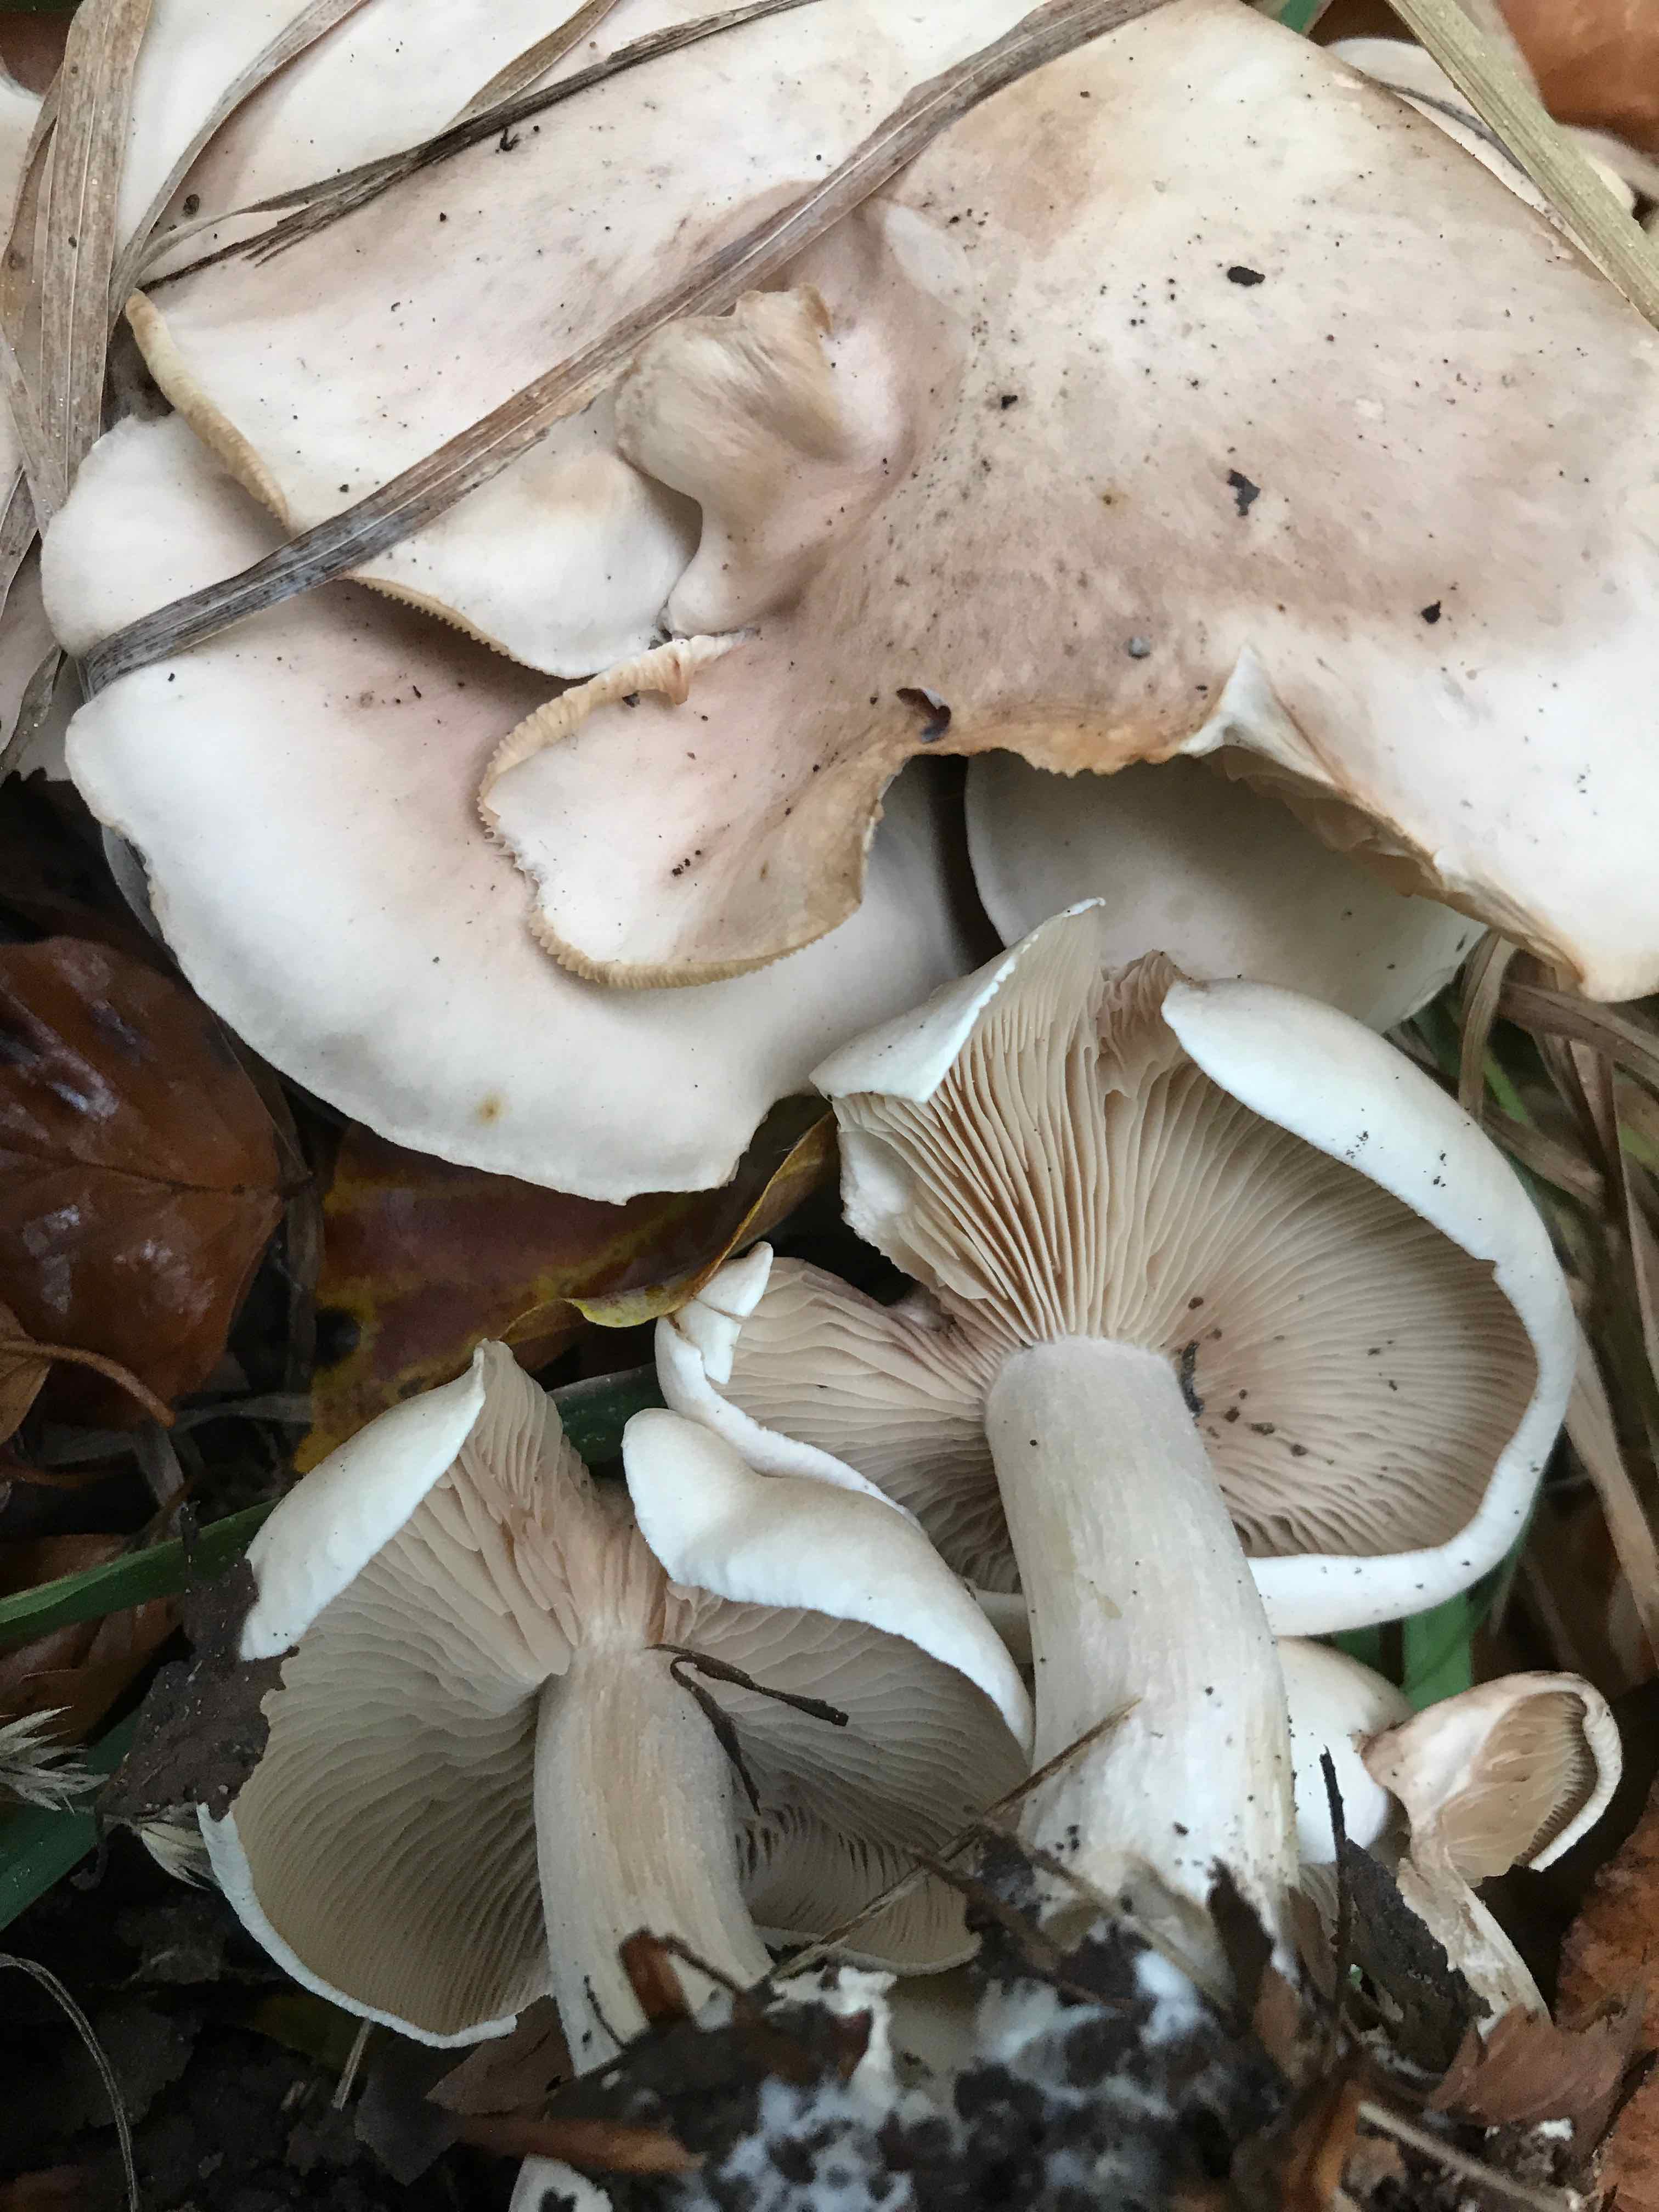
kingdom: Fungi
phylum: Basidiomycota
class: Agaricomycetes
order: Agaricales
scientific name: Agaricales
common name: champignonordenen
